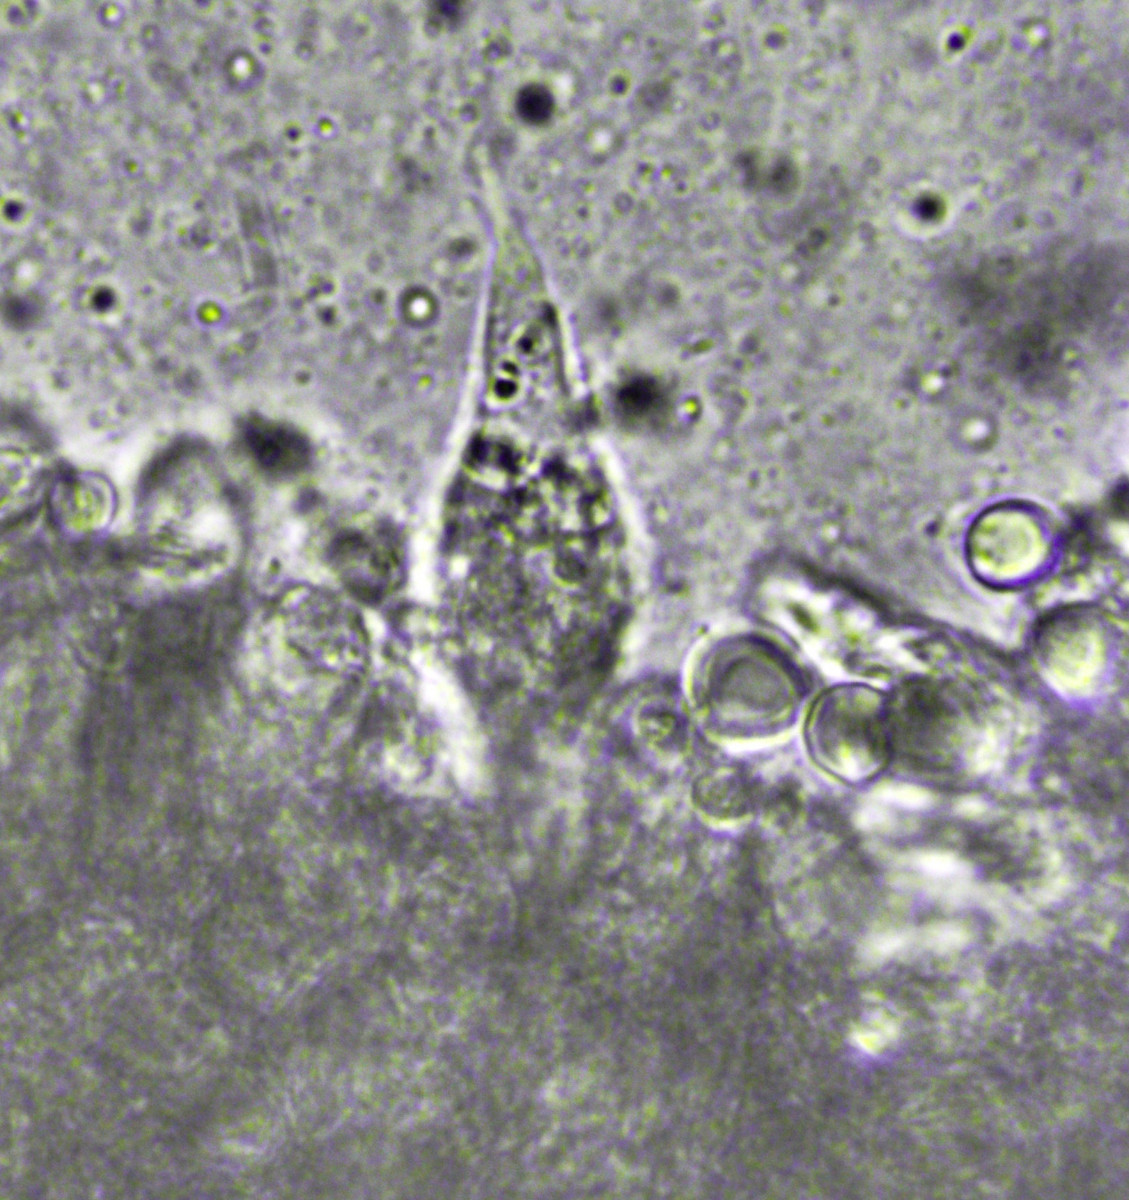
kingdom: Fungi
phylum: Basidiomycota
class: Agaricomycetes
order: Agaricales
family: Mycenaceae
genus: Mycena
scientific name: Mycena erubescens
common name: galde-huesvamp
